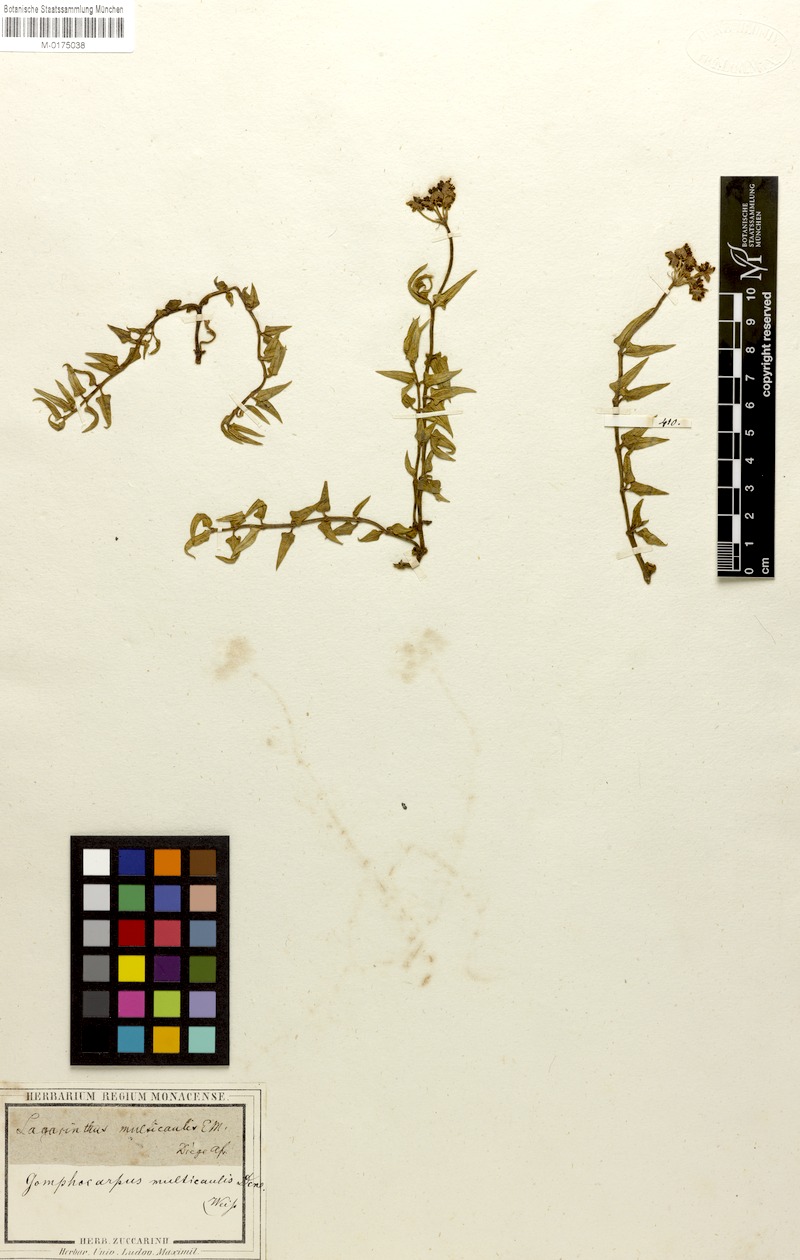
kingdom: Plantae
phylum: Tracheophyta
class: Magnoliopsida
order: Gentianales
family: Apocynaceae
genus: Asclepias
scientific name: Asclepias depressa
